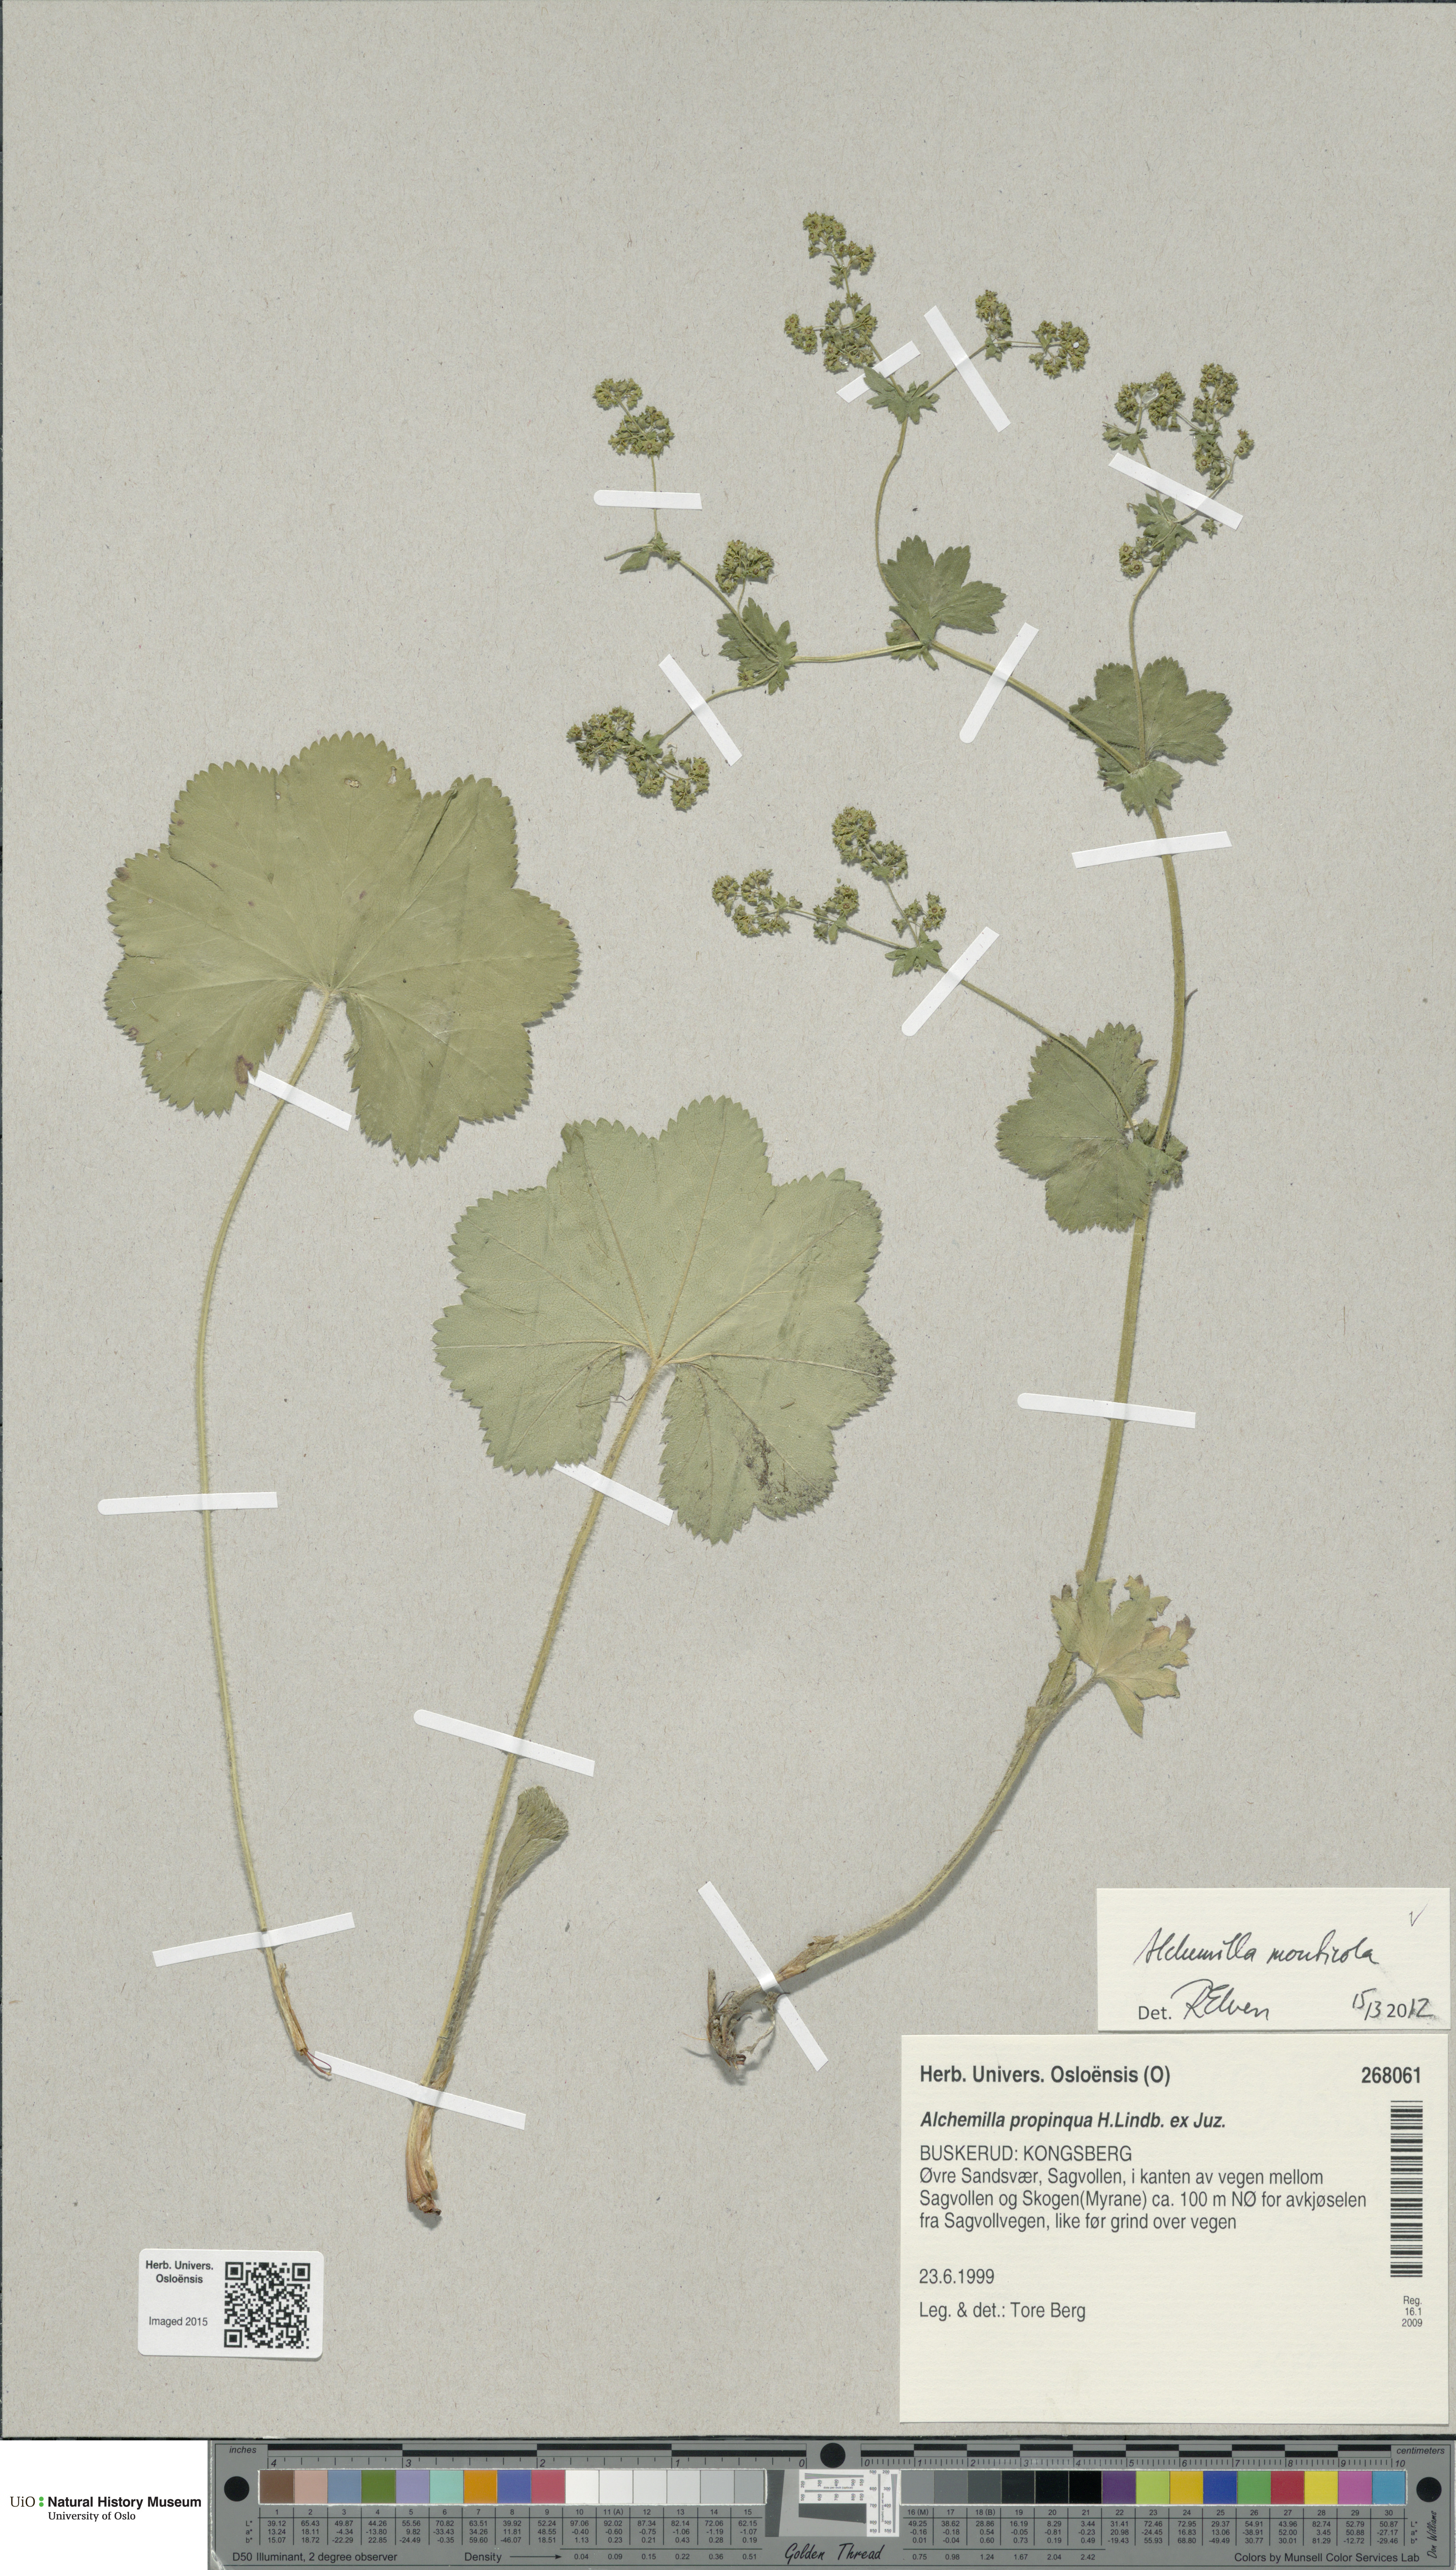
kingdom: Plantae
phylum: Tracheophyta
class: Magnoliopsida
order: Rosales
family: Rosaceae
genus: Alchemilla
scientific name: Alchemilla monticola
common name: Hairy lady's mantle
